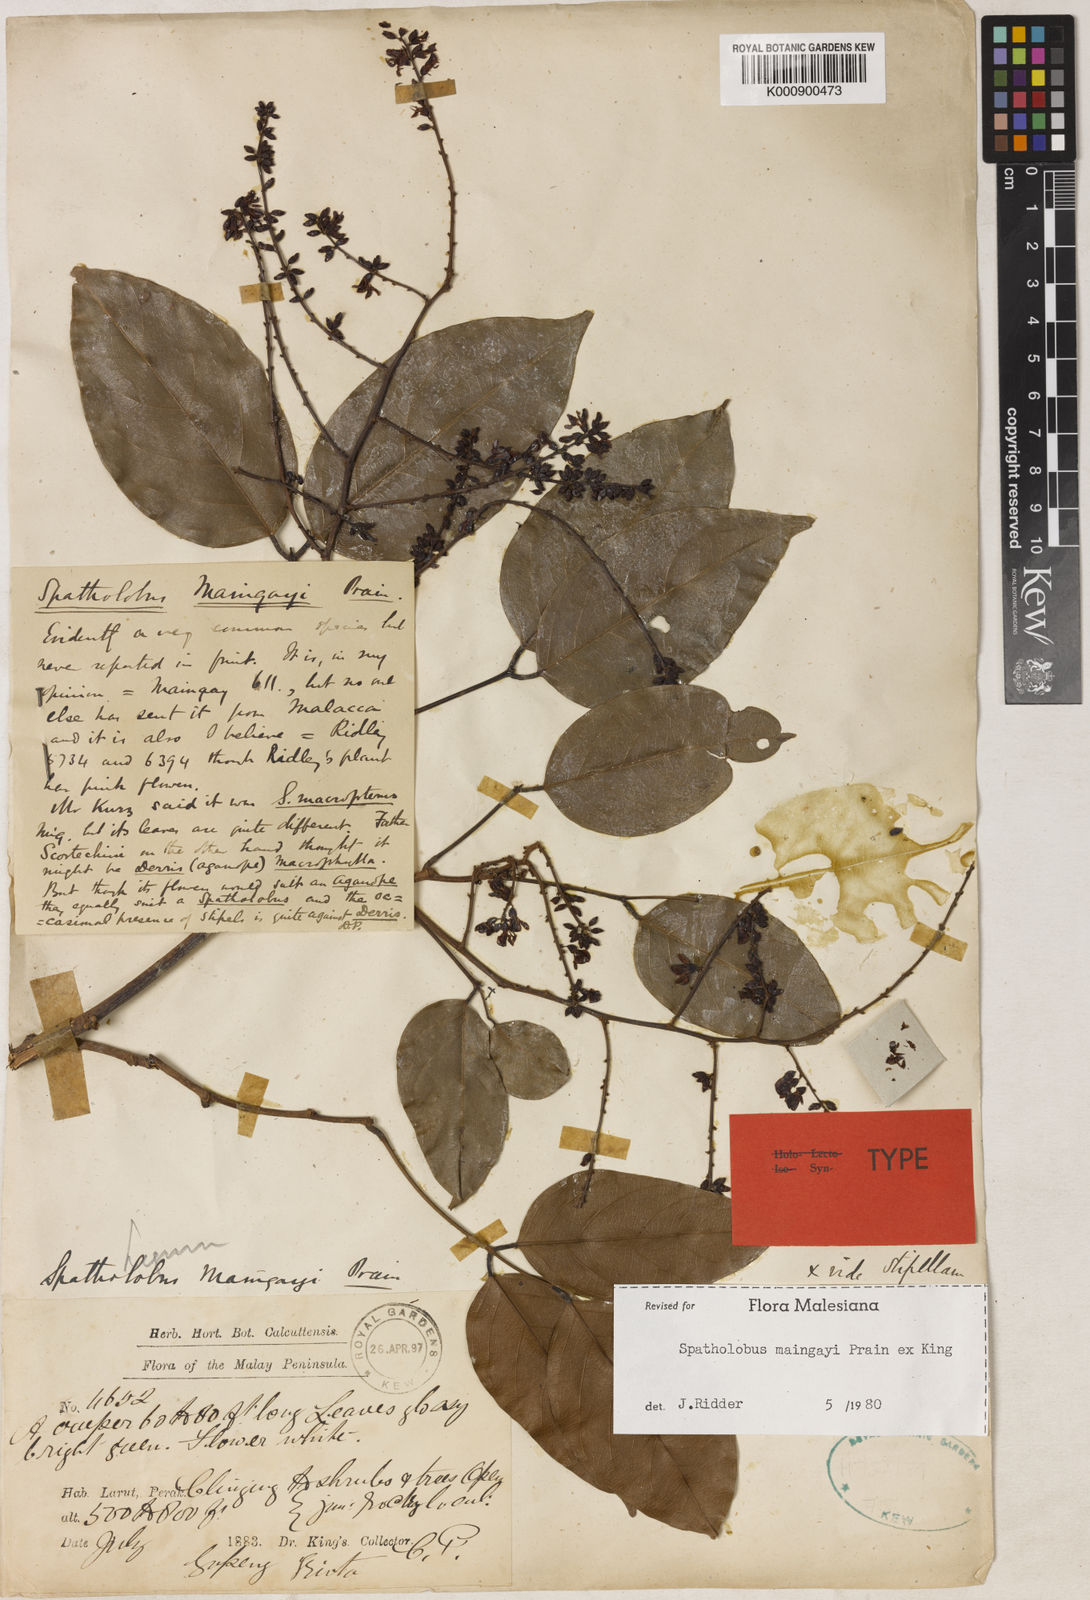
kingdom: Plantae
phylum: Tracheophyta
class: Magnoliopsida
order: Fabales
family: Fabaceae
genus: Spatholobus
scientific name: Spatholobus
